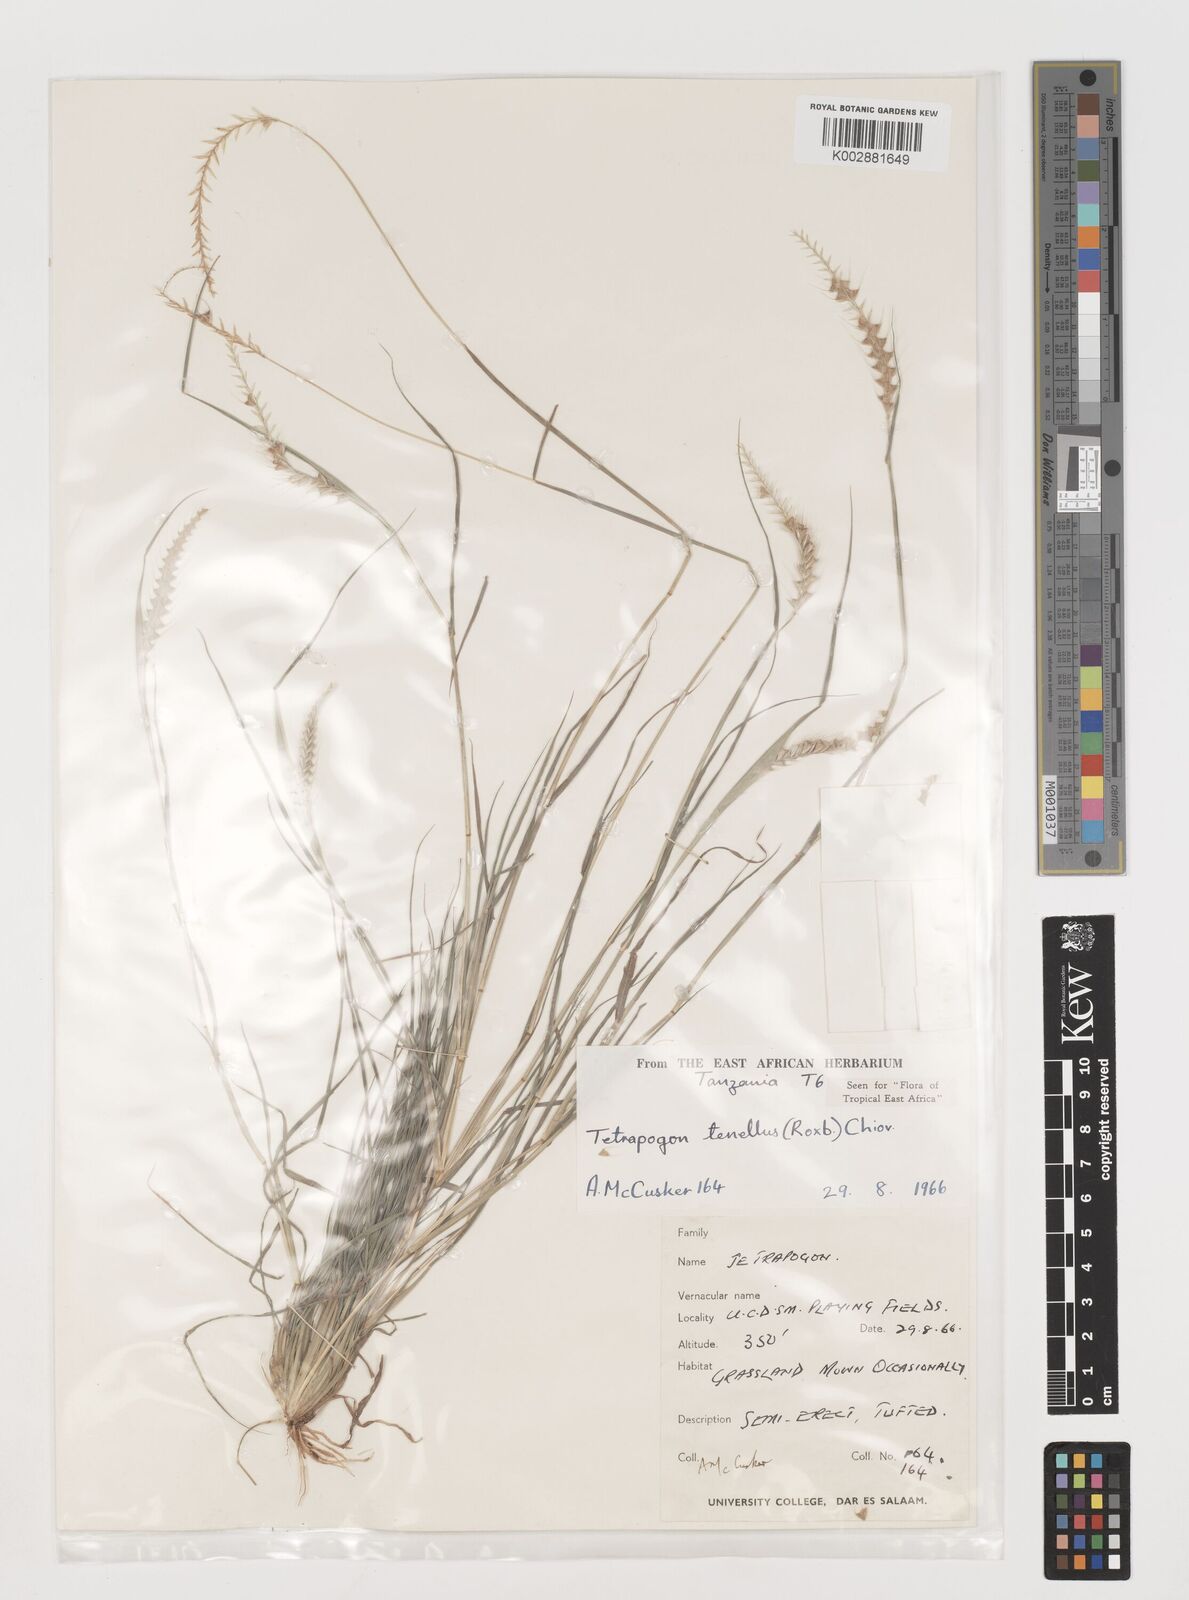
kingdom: Plantae
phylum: Tracheophyta
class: Liliopsida
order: Poales
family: Poaceae
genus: Tetrapogon
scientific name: Tetrapogon tenellus
